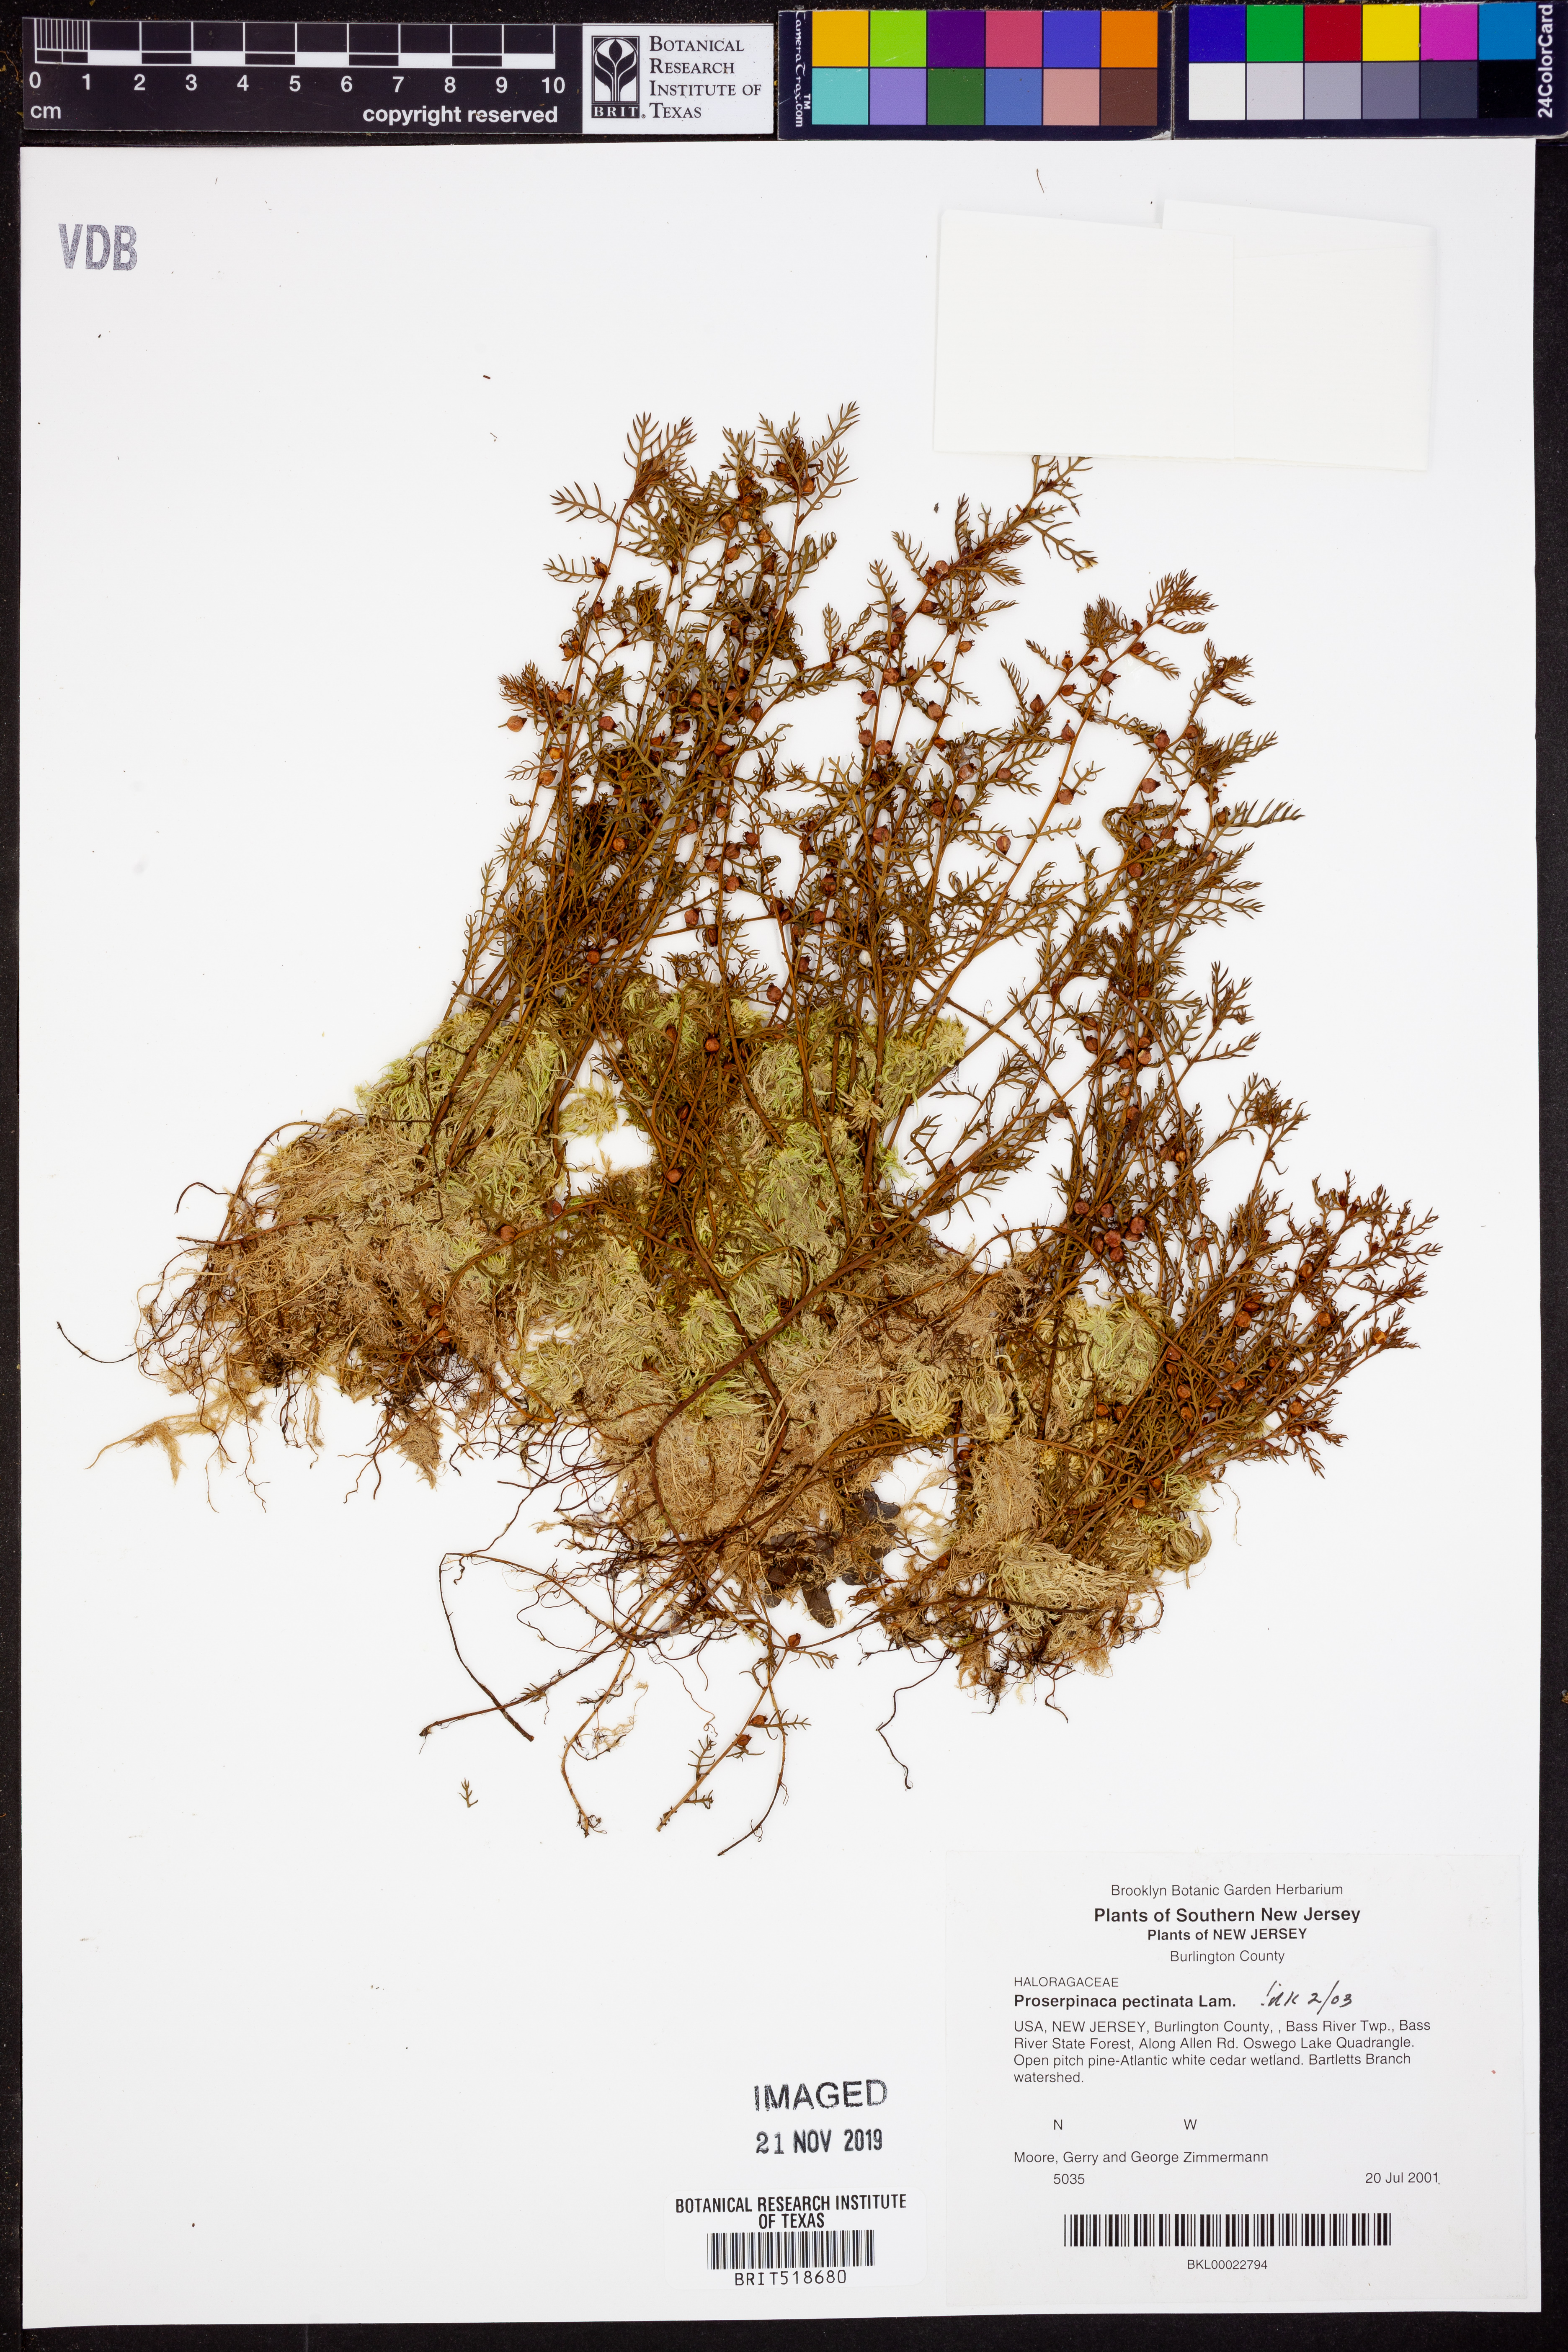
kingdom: Plantae
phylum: Tracheophyta
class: Magnoliopsida
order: Saxifragales
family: Haloragaceae
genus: Proserpinaca
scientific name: Proserpinaca pectinata
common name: Comb-leaved mermaidweed
